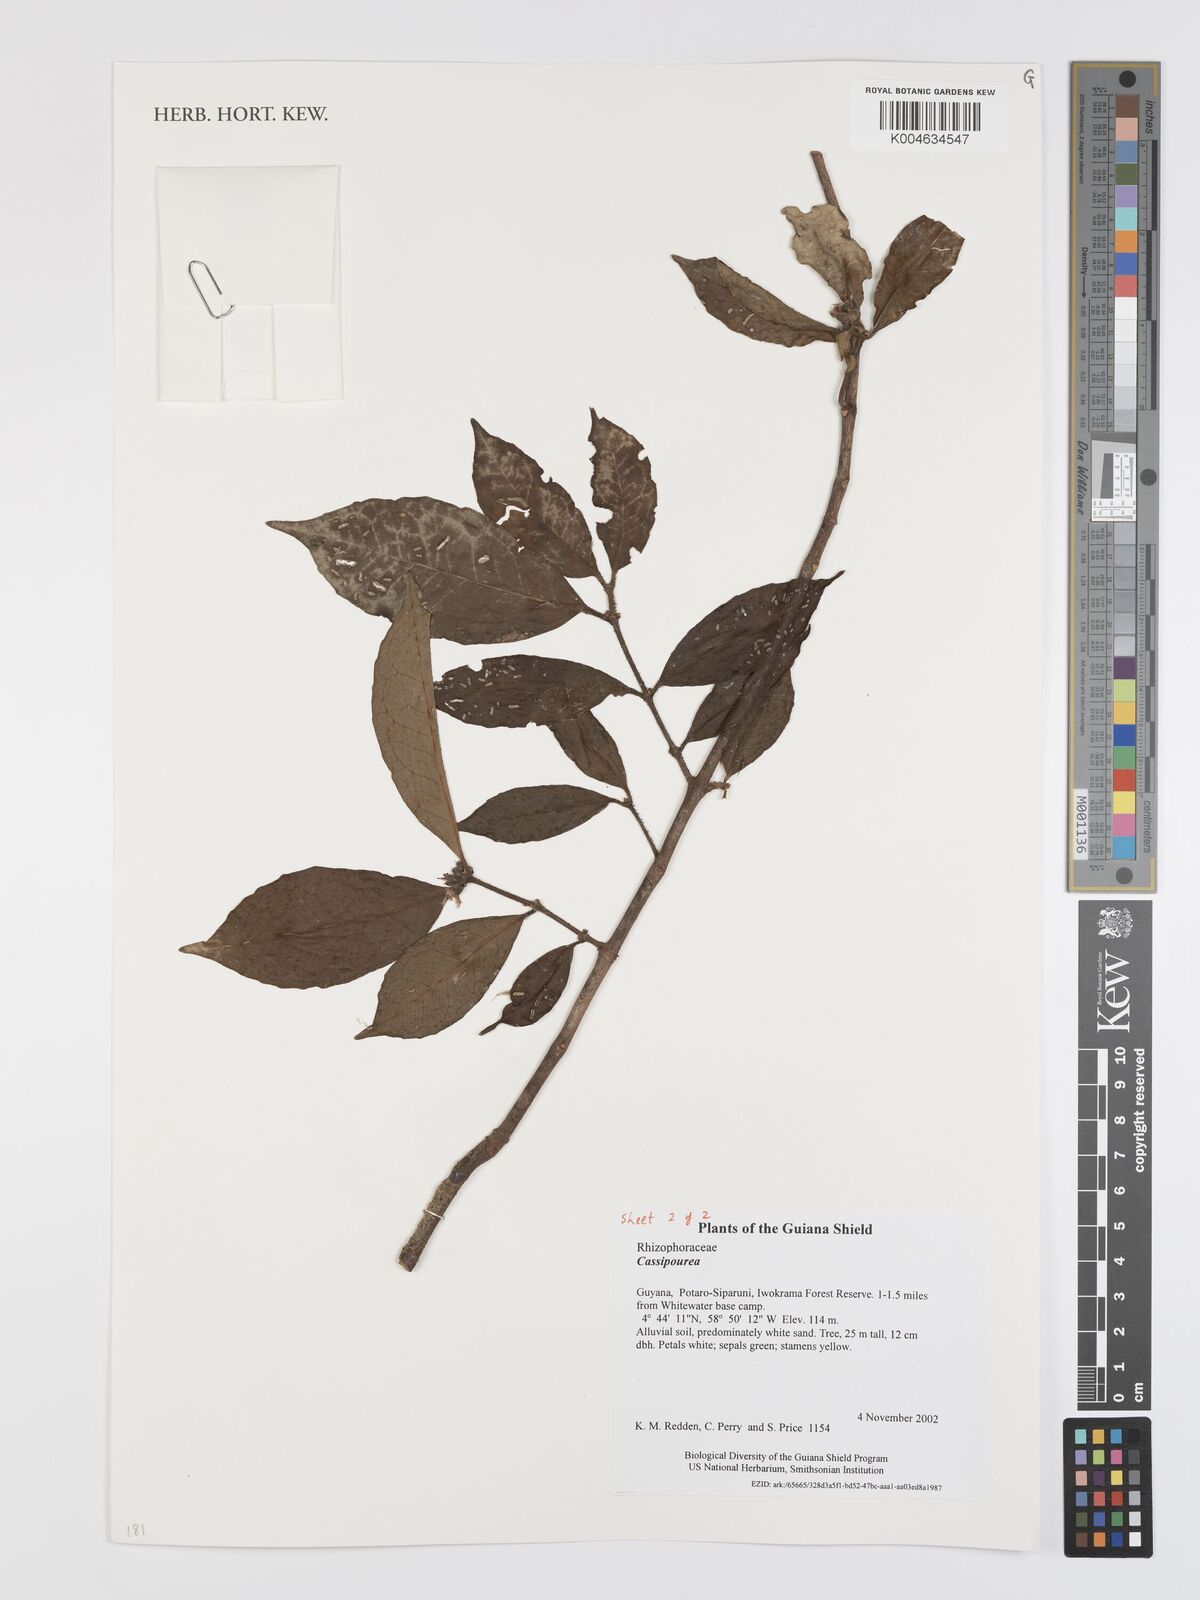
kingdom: Plantae
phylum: Tracheophyta
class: Magnoliopsida
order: Malpighiales
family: Rhizophoraceae
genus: Cassipourea
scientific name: Cassipourea
